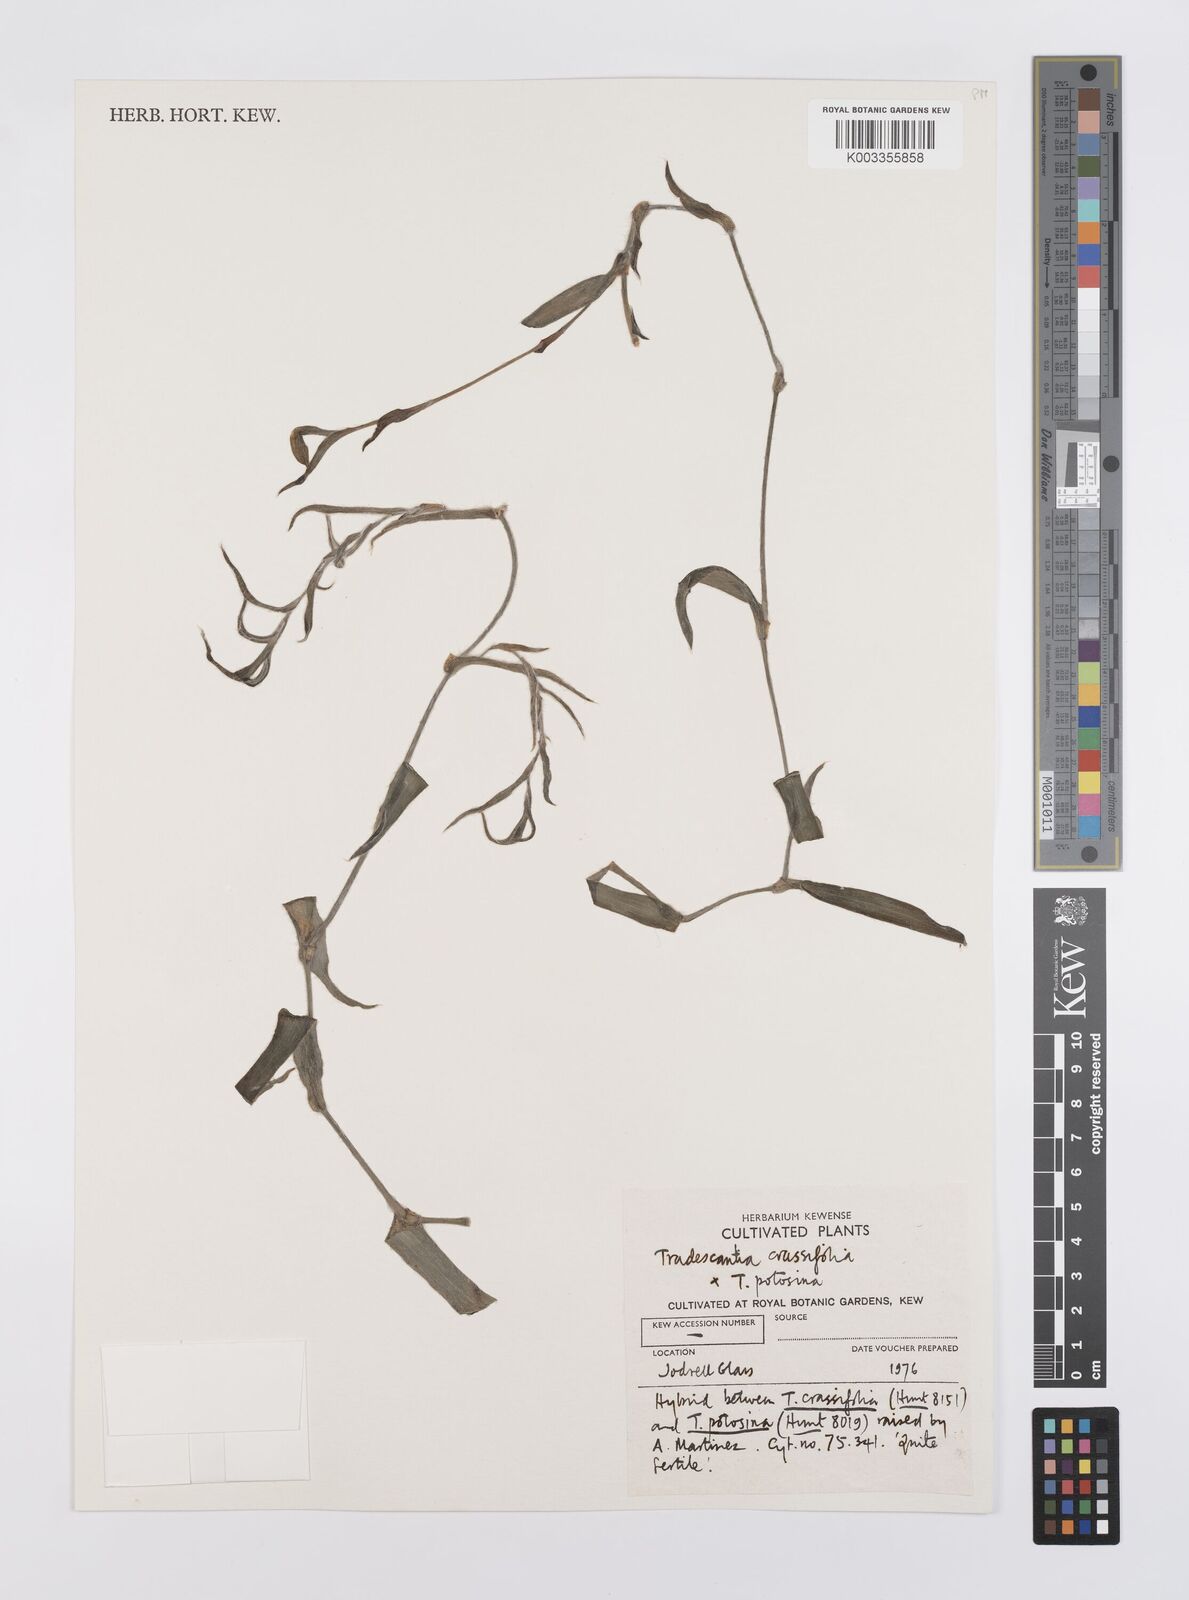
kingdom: Plantae
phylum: Tracheophyta
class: Liliopsida
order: Commelinales
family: Commelinaceae
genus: Tradescantia
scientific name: Tradescantia
